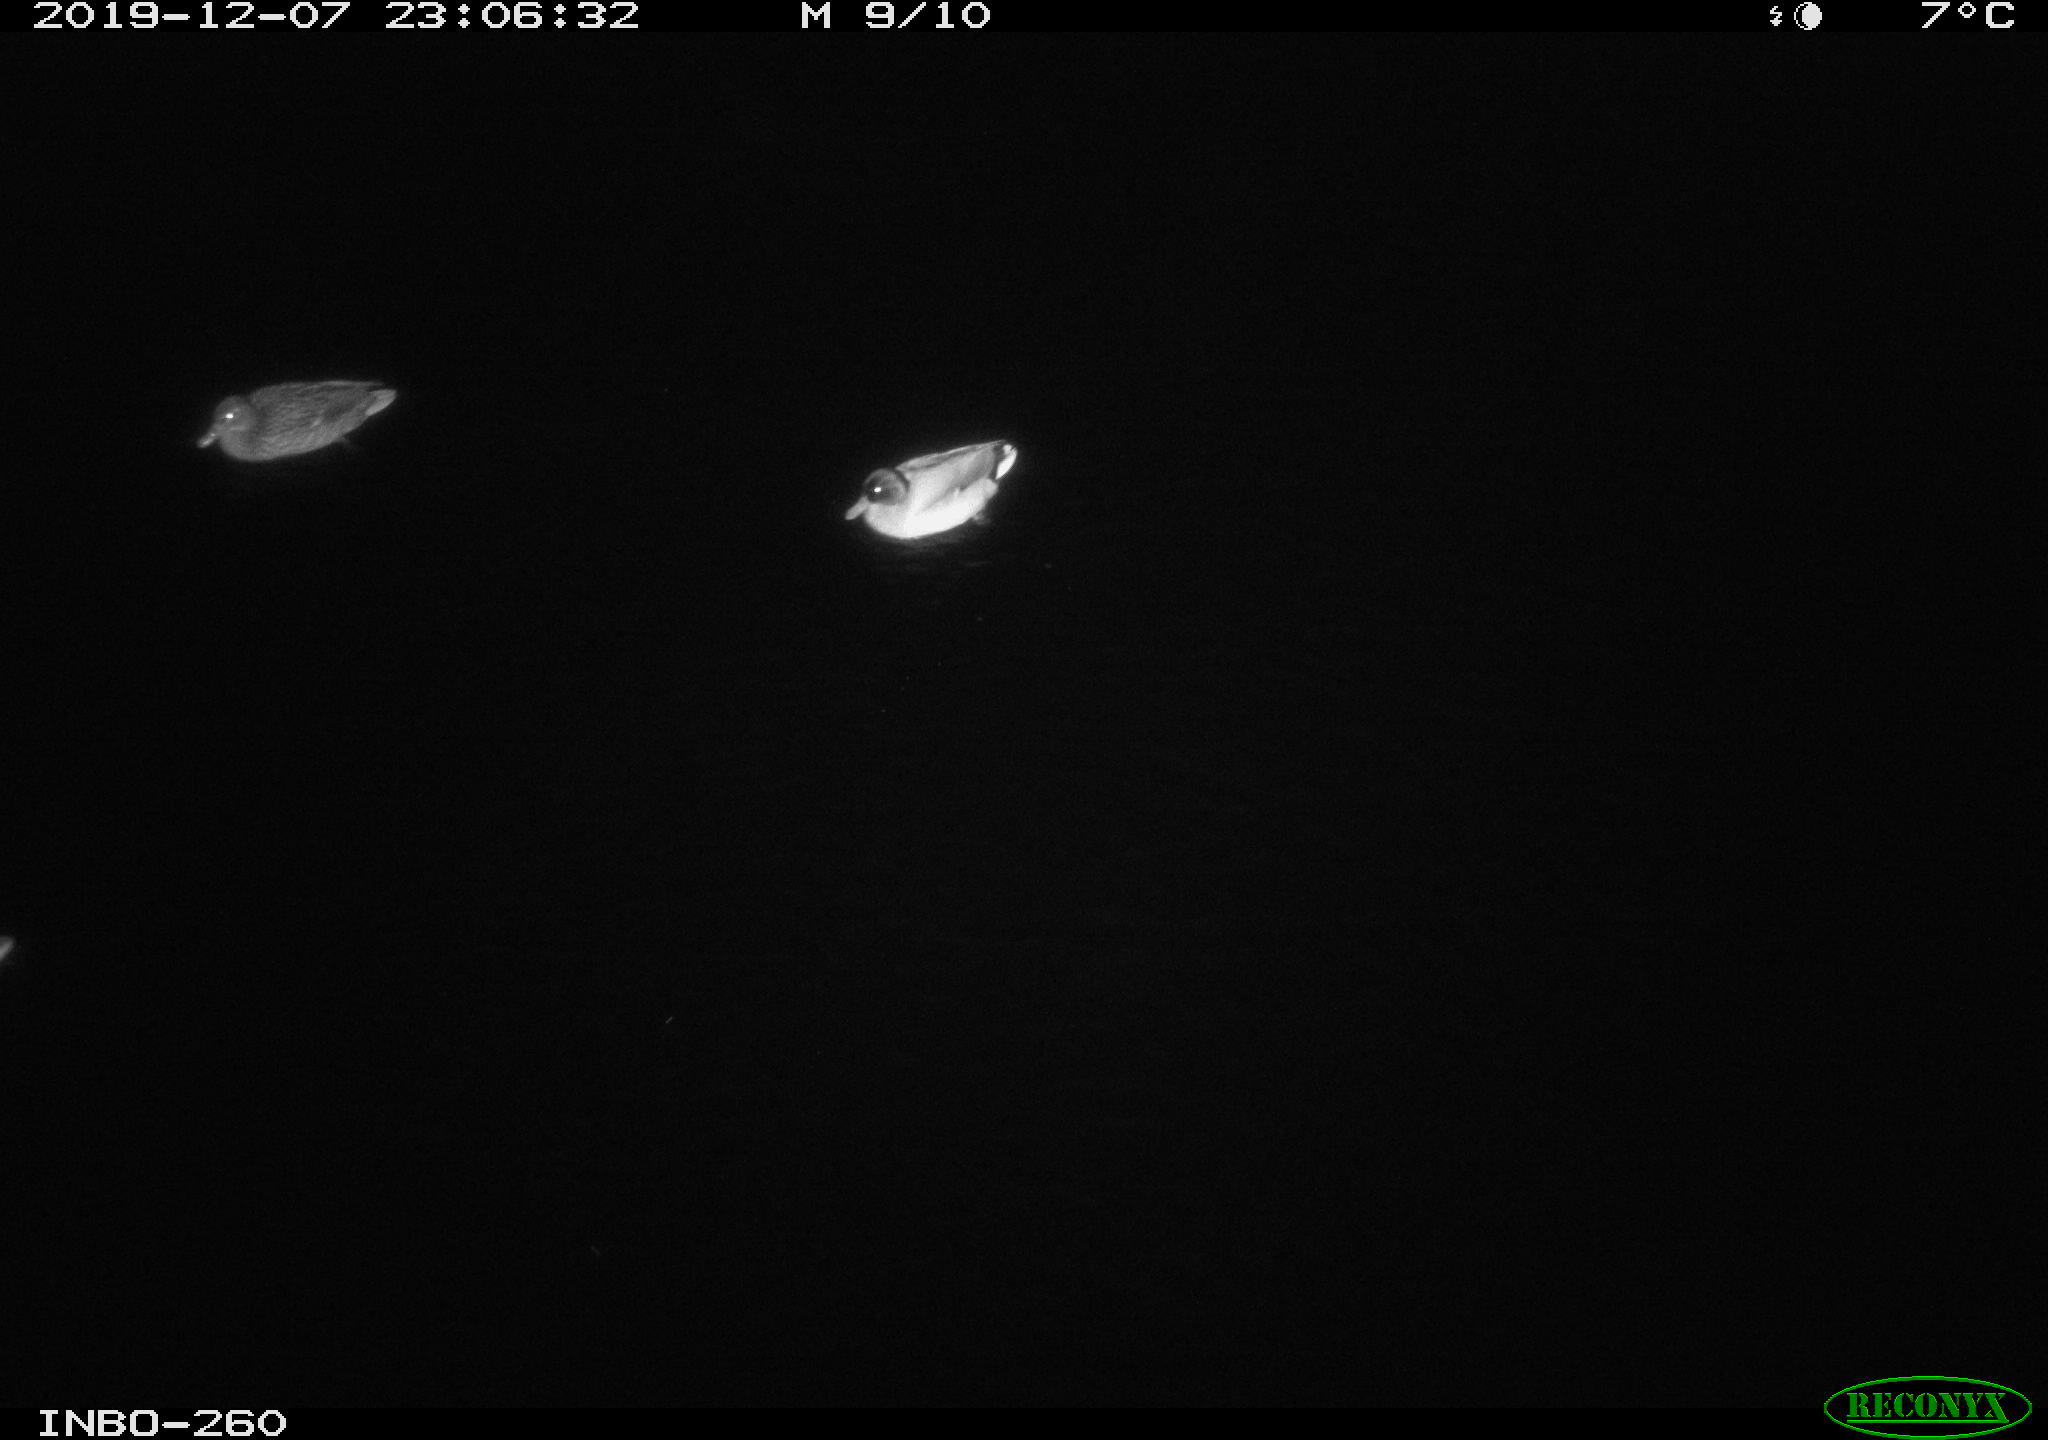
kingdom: Animalia
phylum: Chordata
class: Aves
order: Anseriformes
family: Anatidae
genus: Anas
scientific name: Anas platyrhynchos
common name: Mallard
